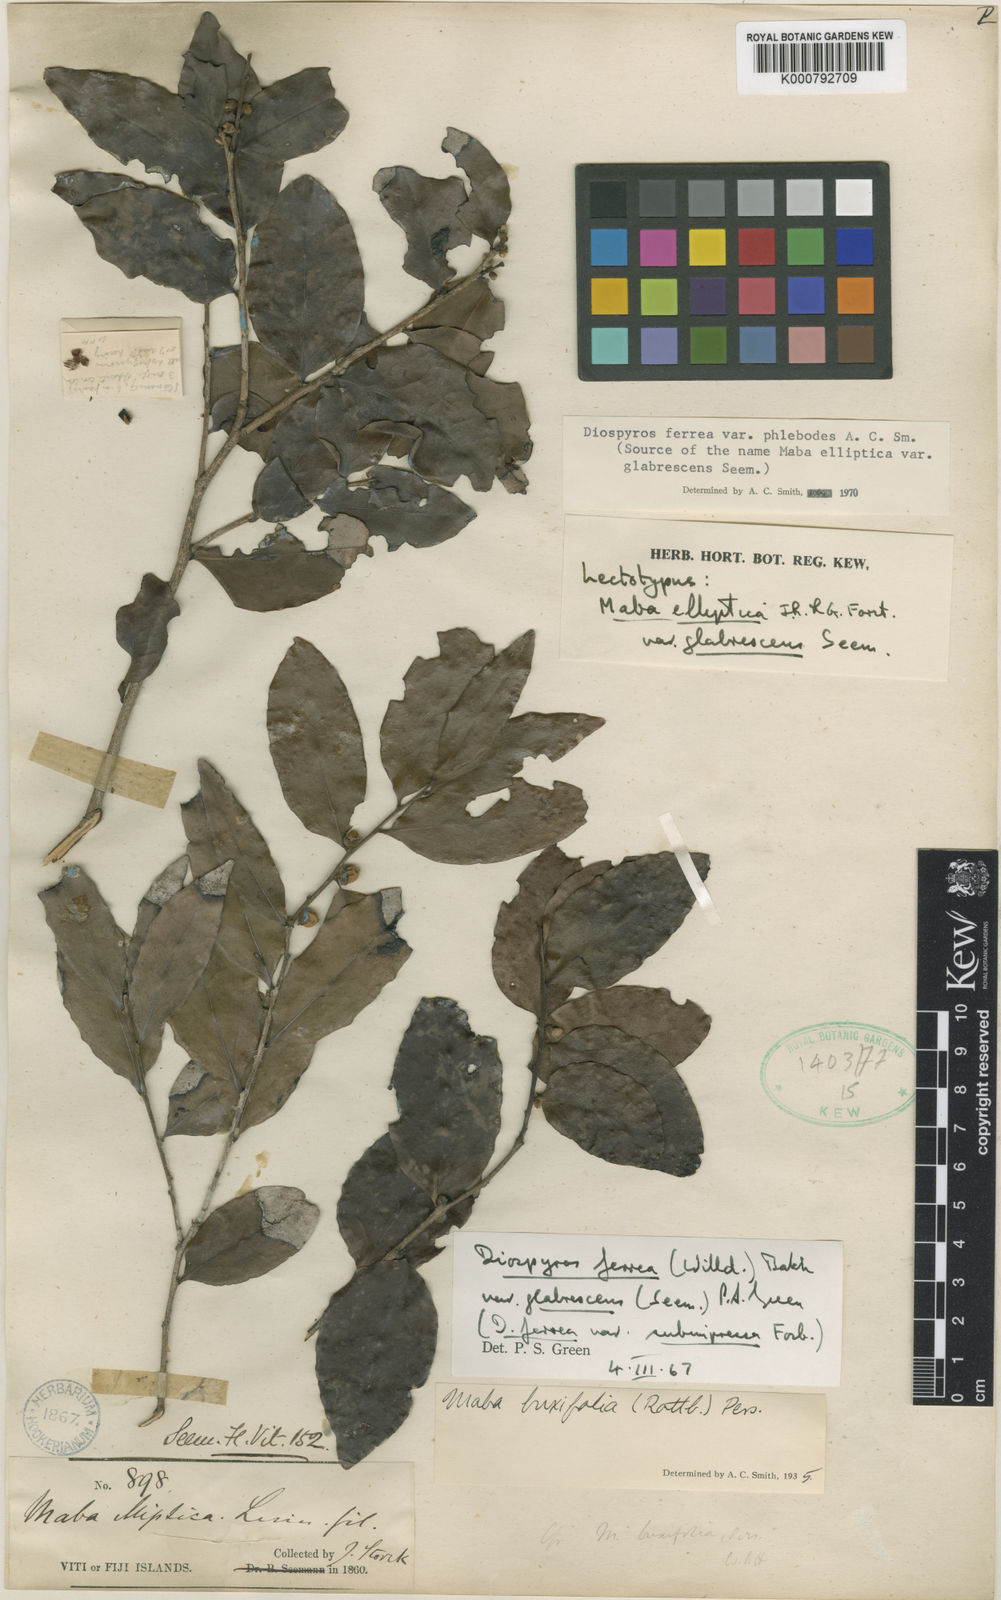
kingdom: Plantae
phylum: Tracheophyta
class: Magnoliopsida
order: Ericales
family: Ebenaceae
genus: Diospyros
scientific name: Diospyros ferrea
